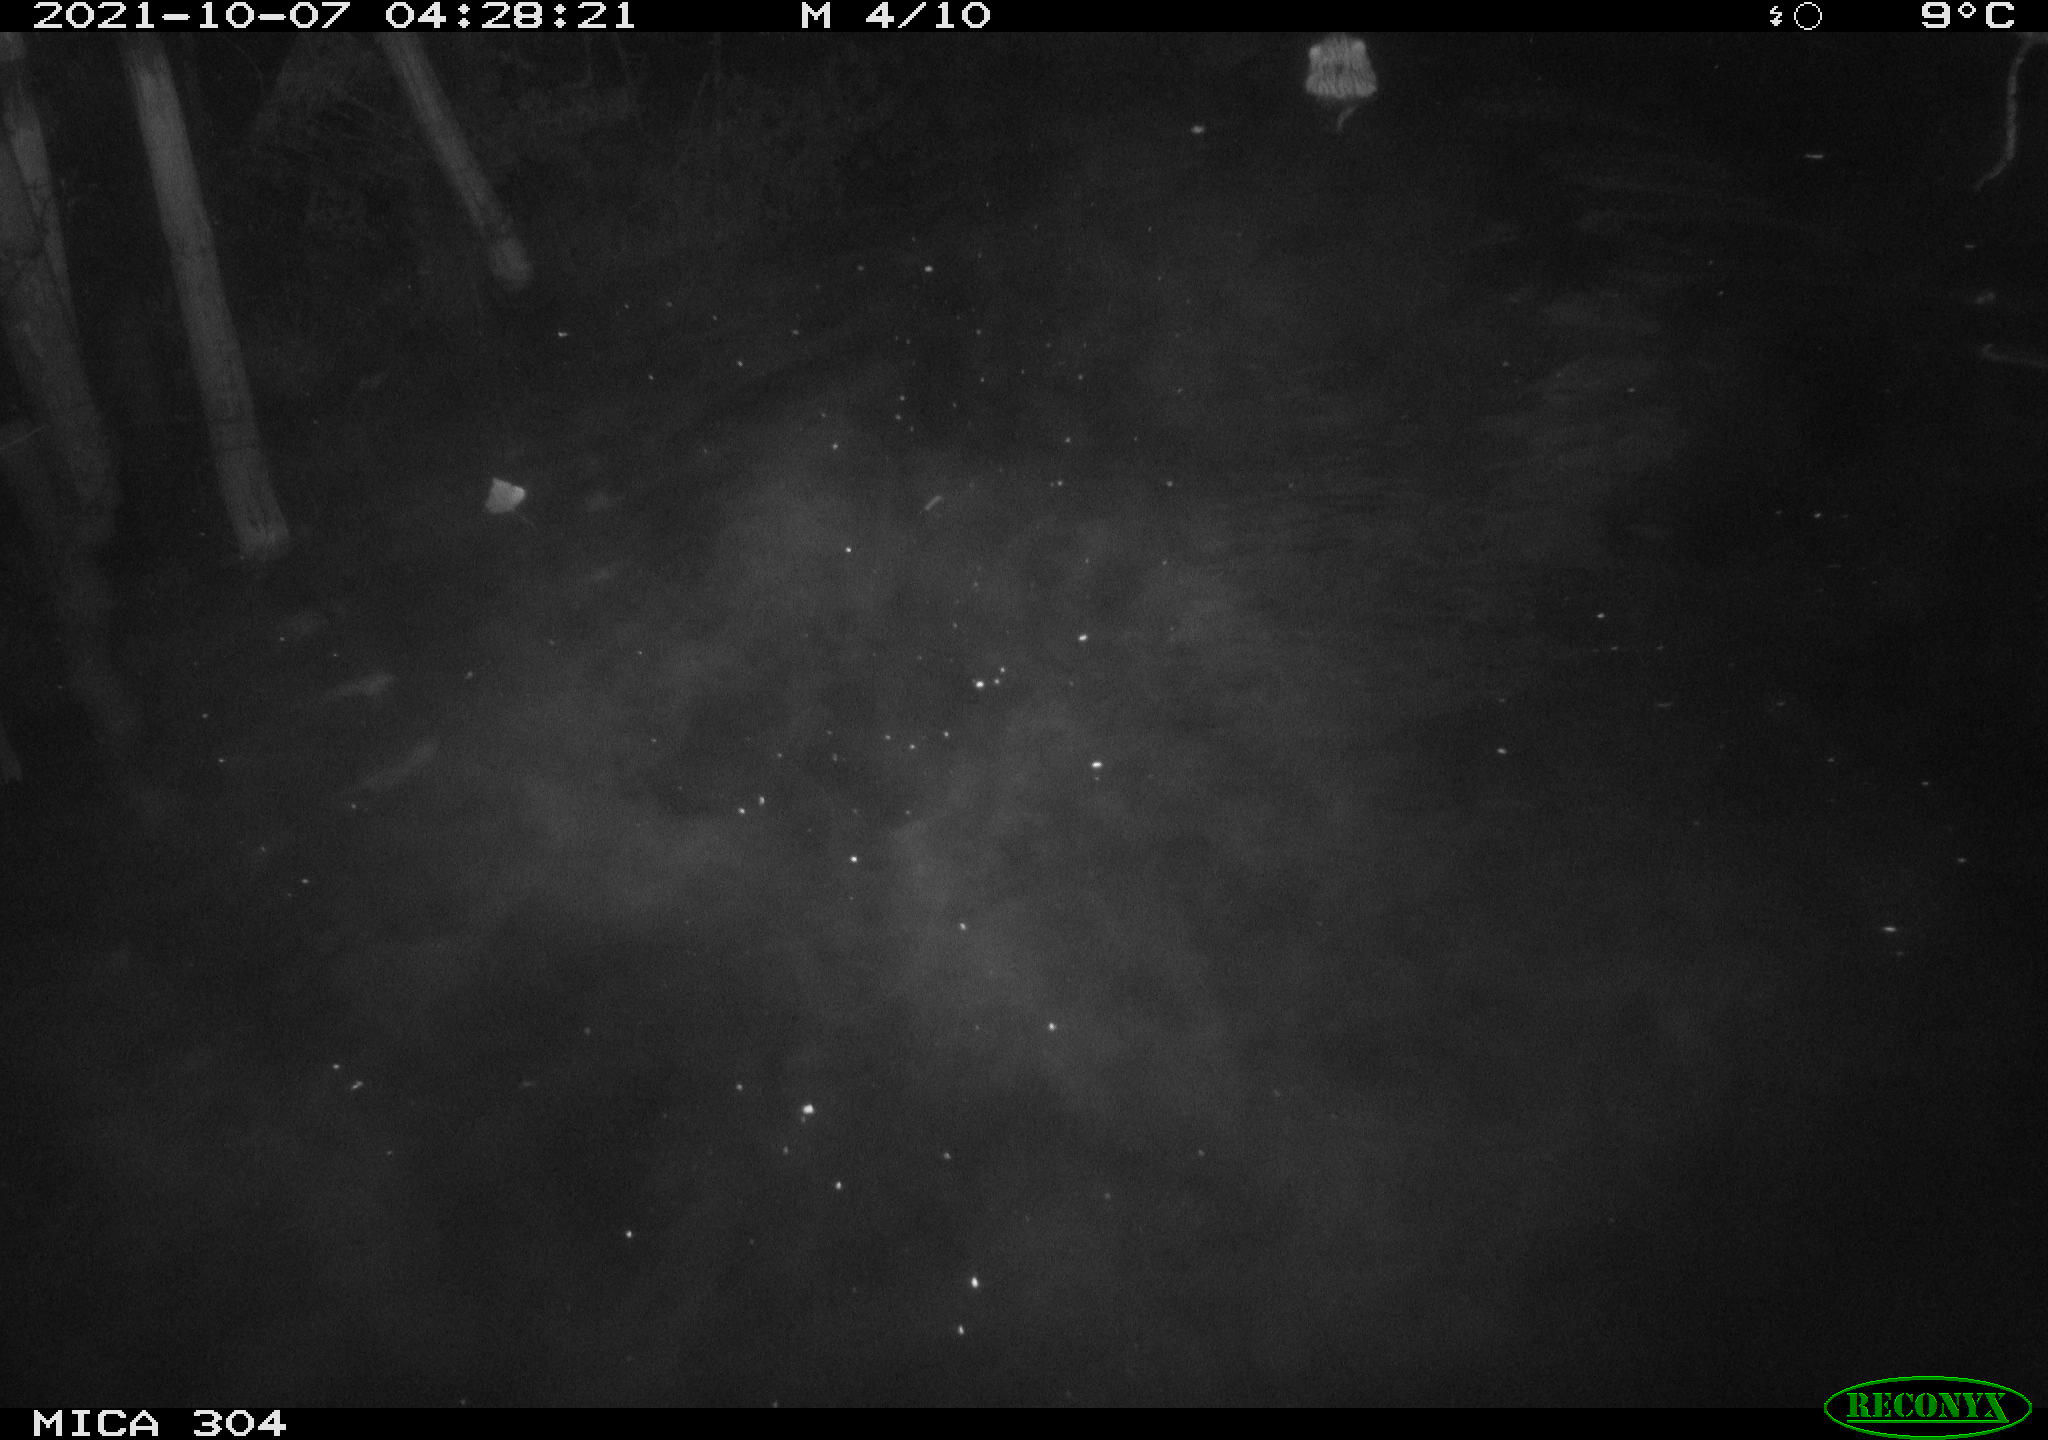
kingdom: Animalia
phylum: Chordata
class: Mammalia
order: Rodentia
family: Cricetidae
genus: Ondatra
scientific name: Ondatra zibethicus
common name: Muskrat
